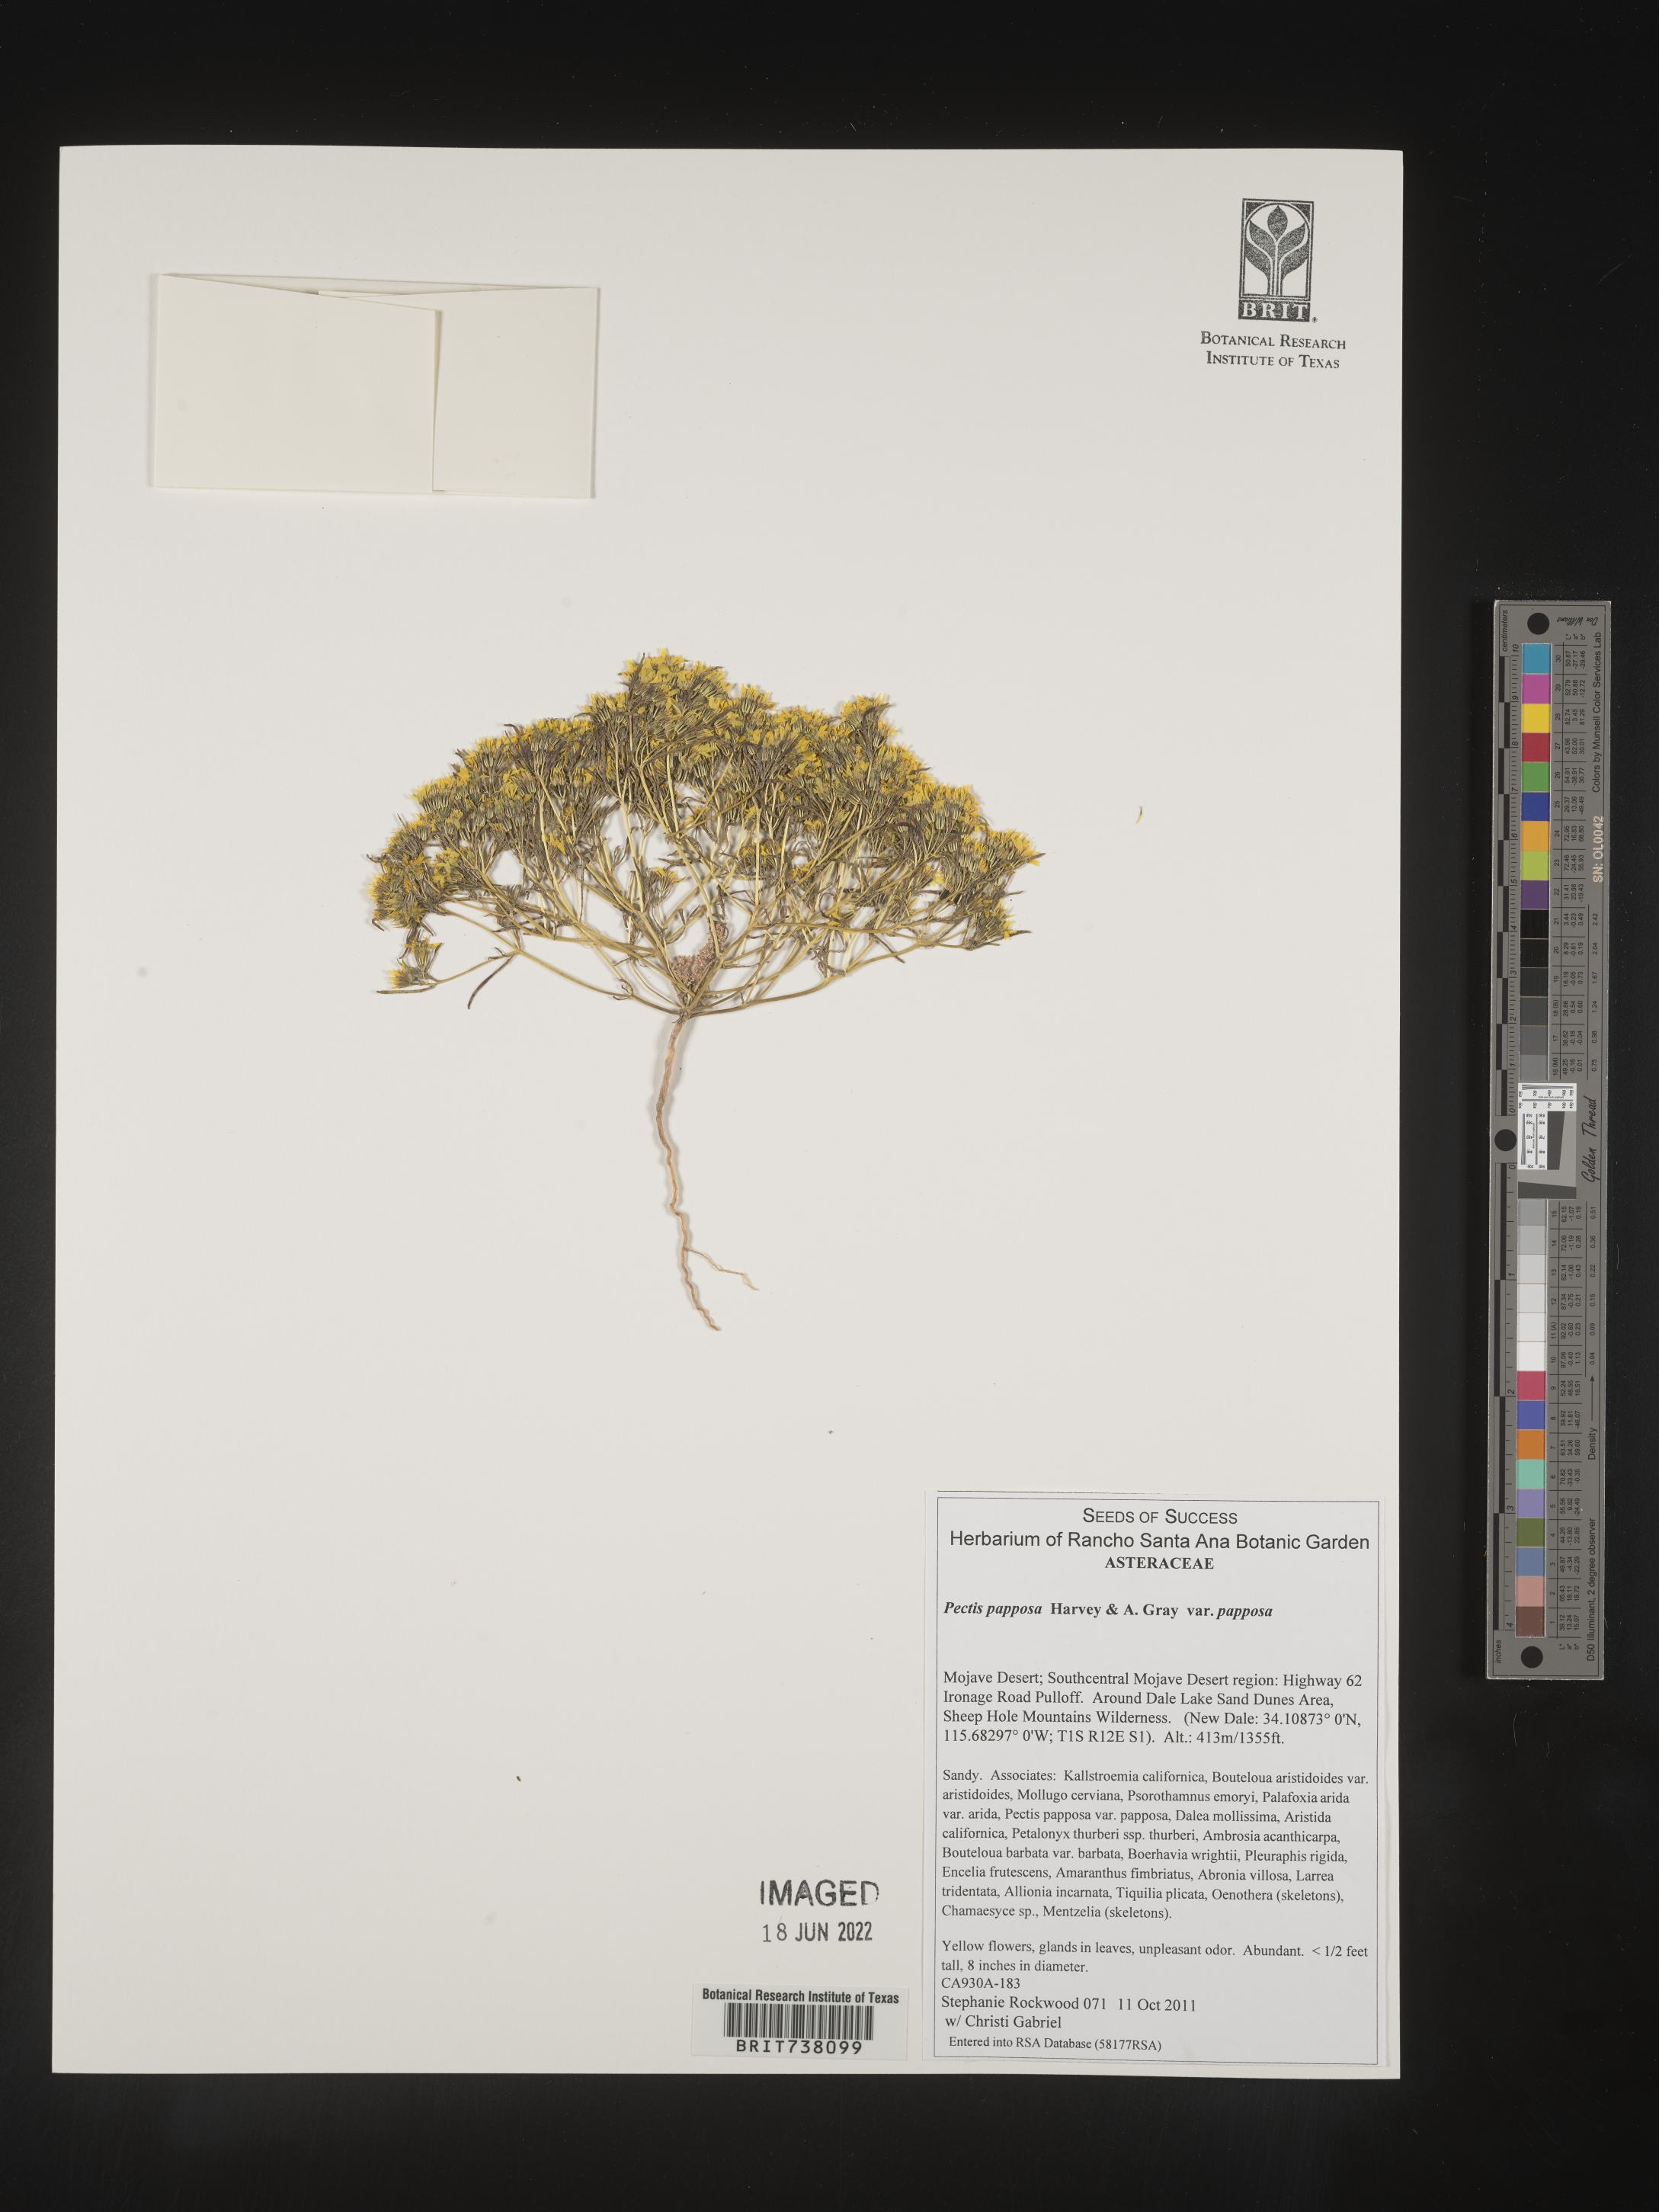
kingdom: Plantae
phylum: Tracheophyta
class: Magnoliopsida
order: Asterales
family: Asteraceae
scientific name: Asteraceae
